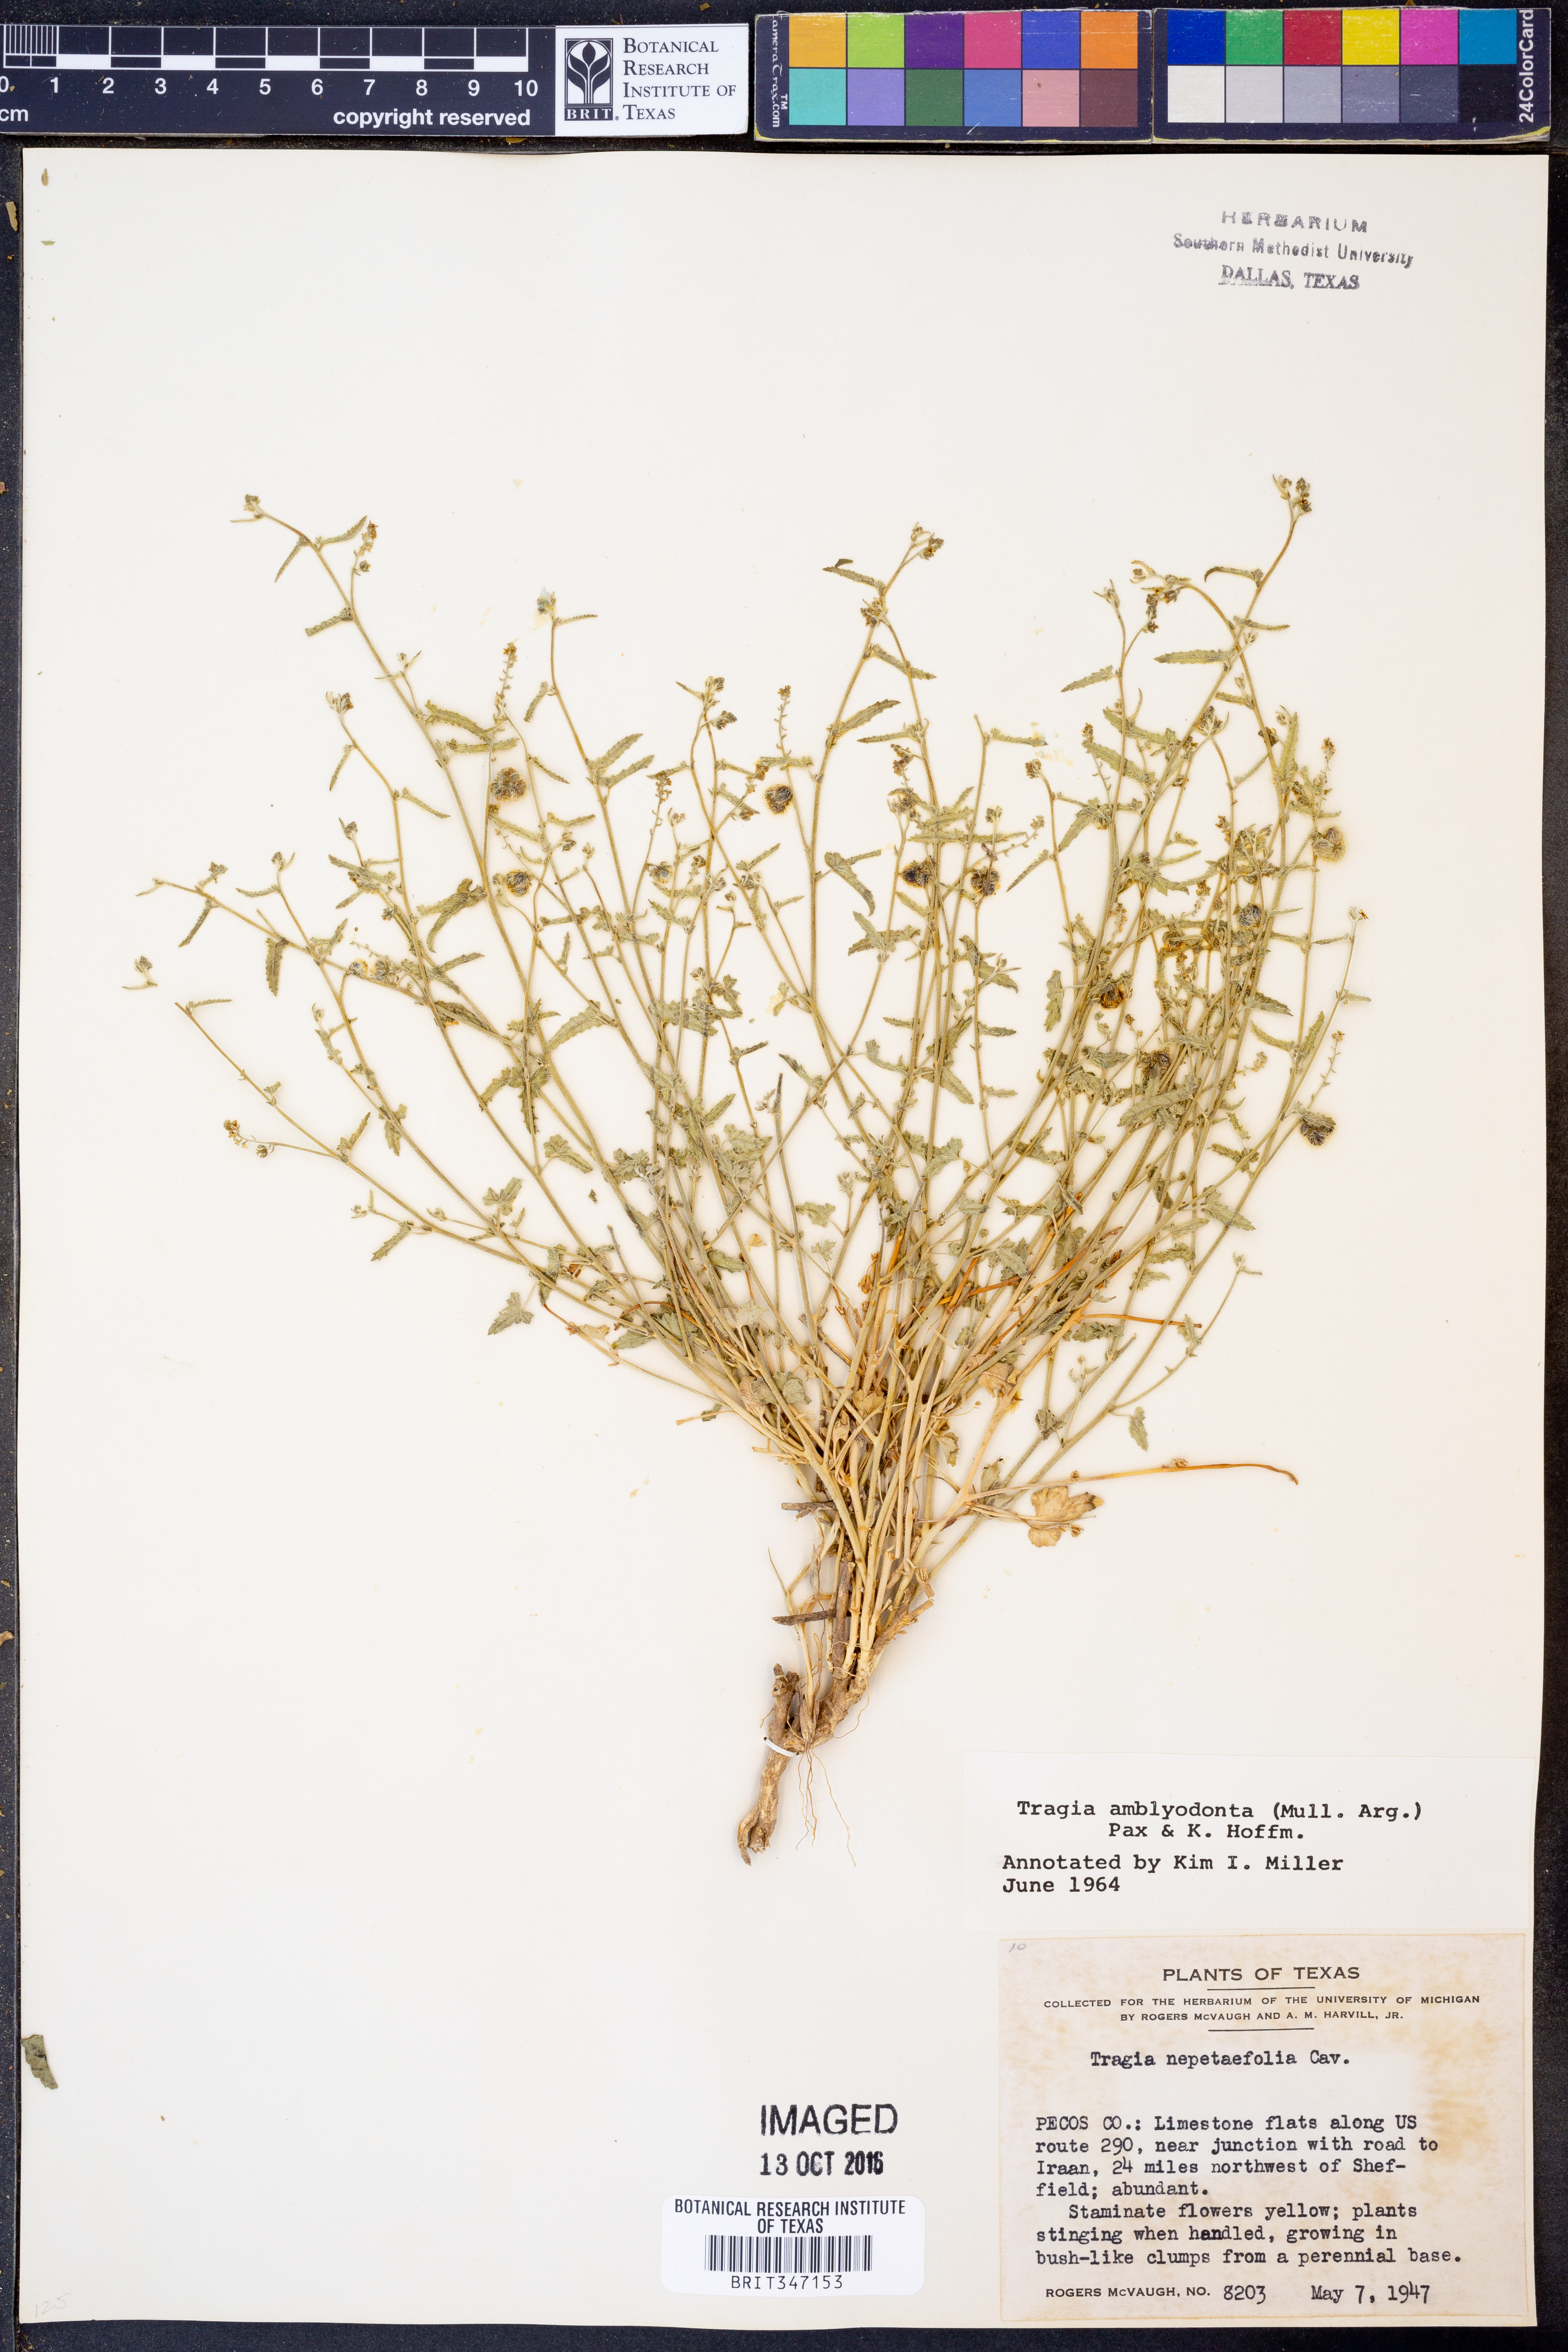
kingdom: Plantae
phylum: Tracheophyta
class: Magnoliopsida
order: Malpighiales
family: Euphorbiaceae
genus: Tragia
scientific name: Tragia amblyodonta
